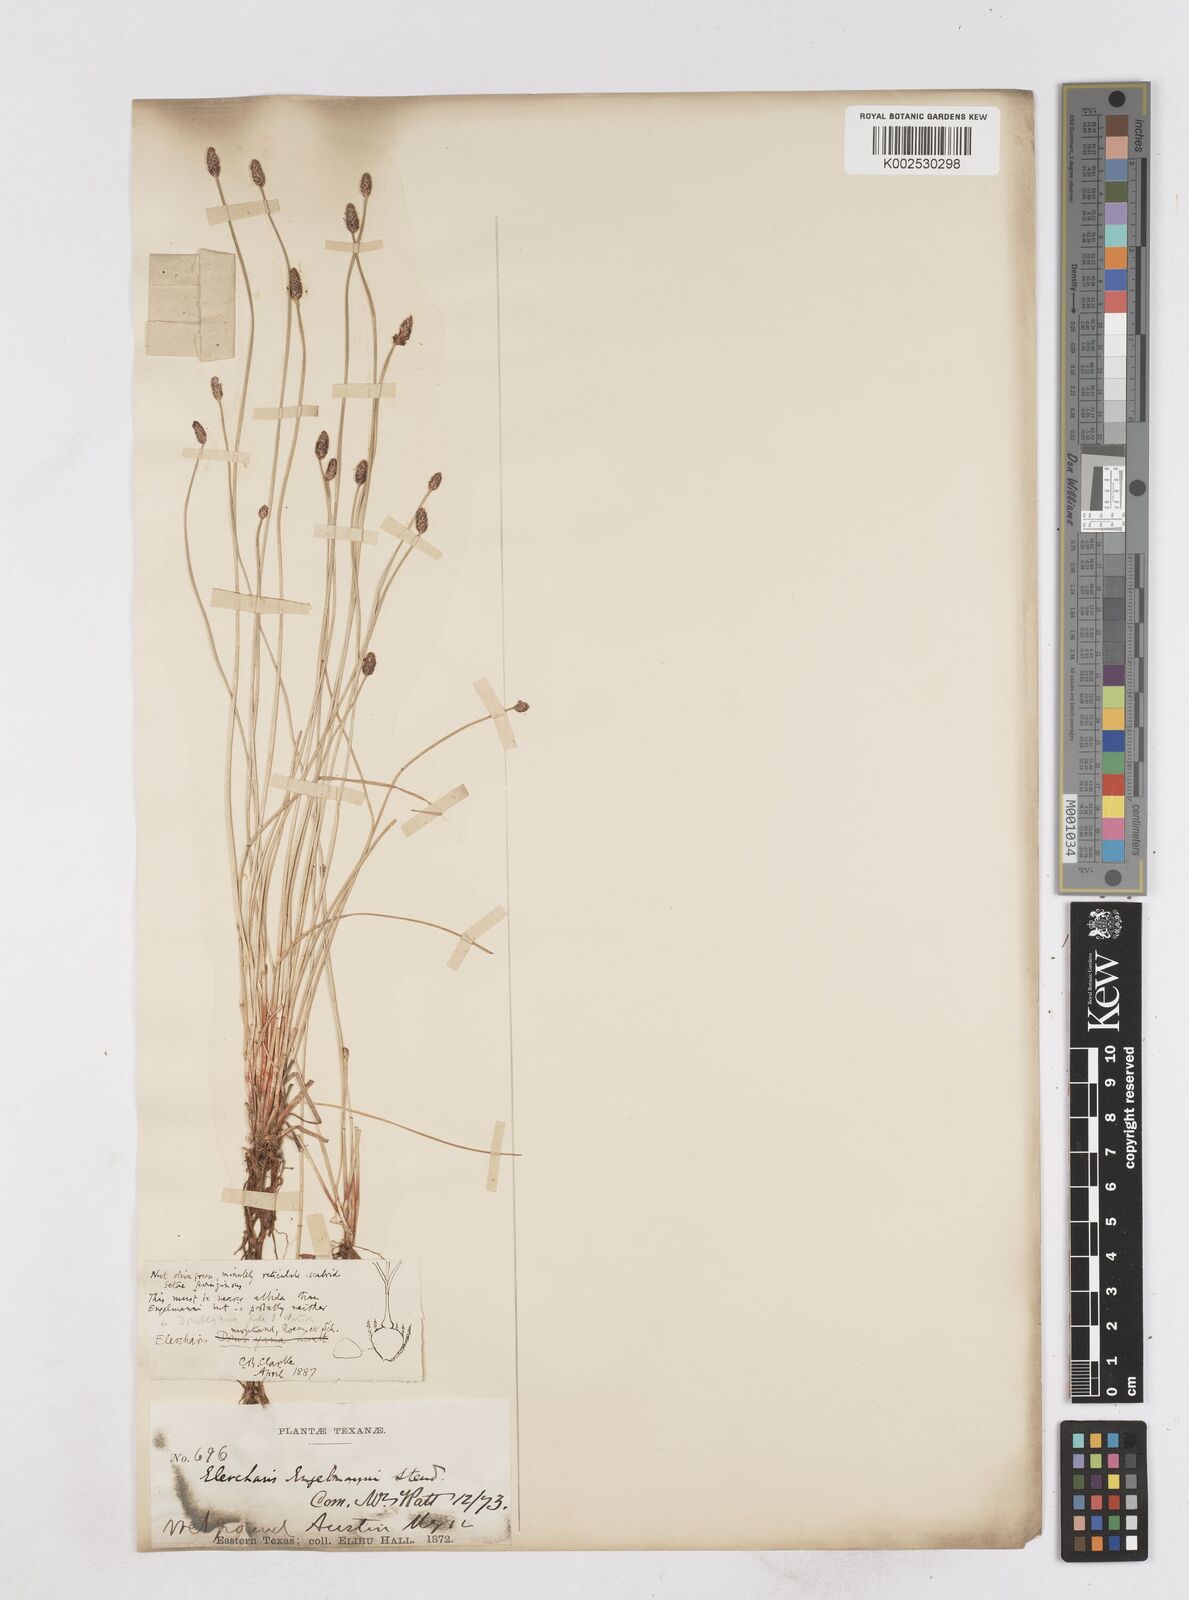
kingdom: Plantae
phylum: Tracheophyta
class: Liliopsida
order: Poales
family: Cyperaceae
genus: Eleocharis
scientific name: Eleocharis montana
